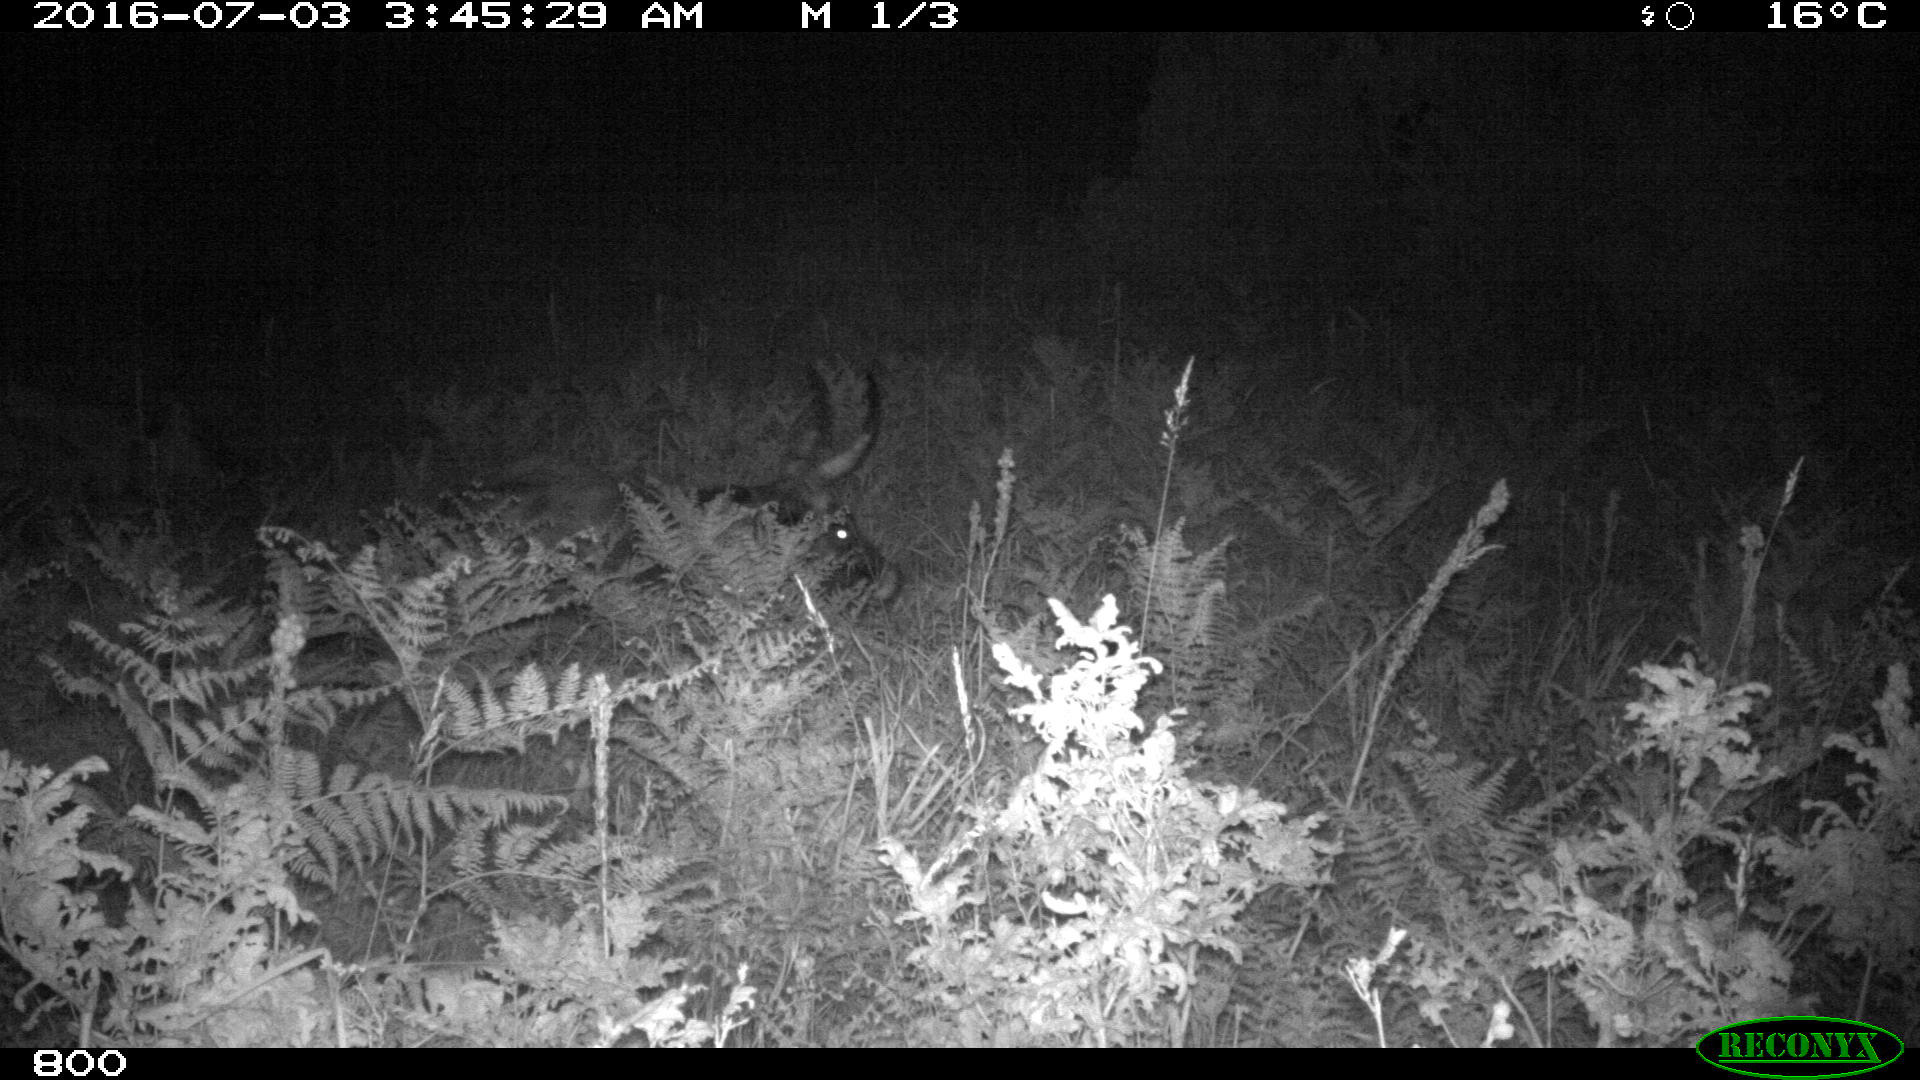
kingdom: Animalia
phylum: Chordata
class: Mammalia
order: Artiodactyla
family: Bovidae
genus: Bos
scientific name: Bos taurus
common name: Domesticated cattle
